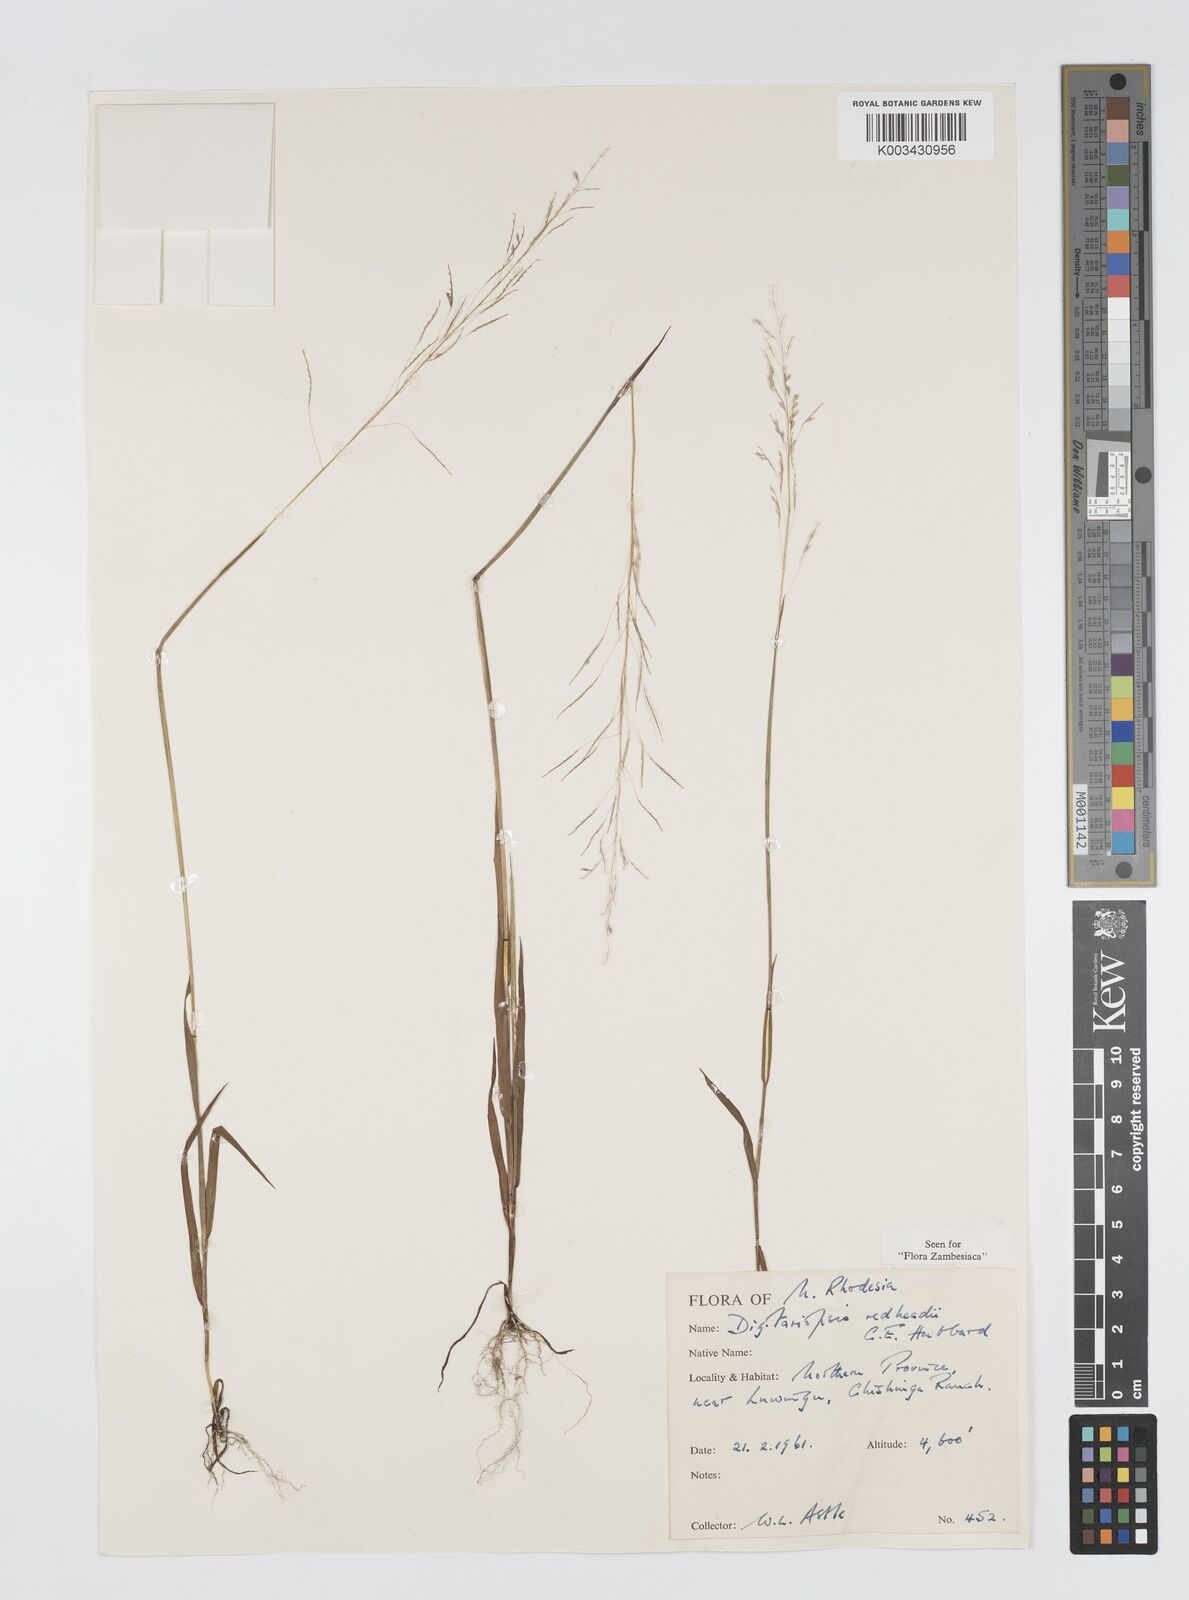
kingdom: Plantae
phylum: Tracheophyta
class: Liliopsida
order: Poales
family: Poaceae
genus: Digitaria
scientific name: Digitaria redheadii
